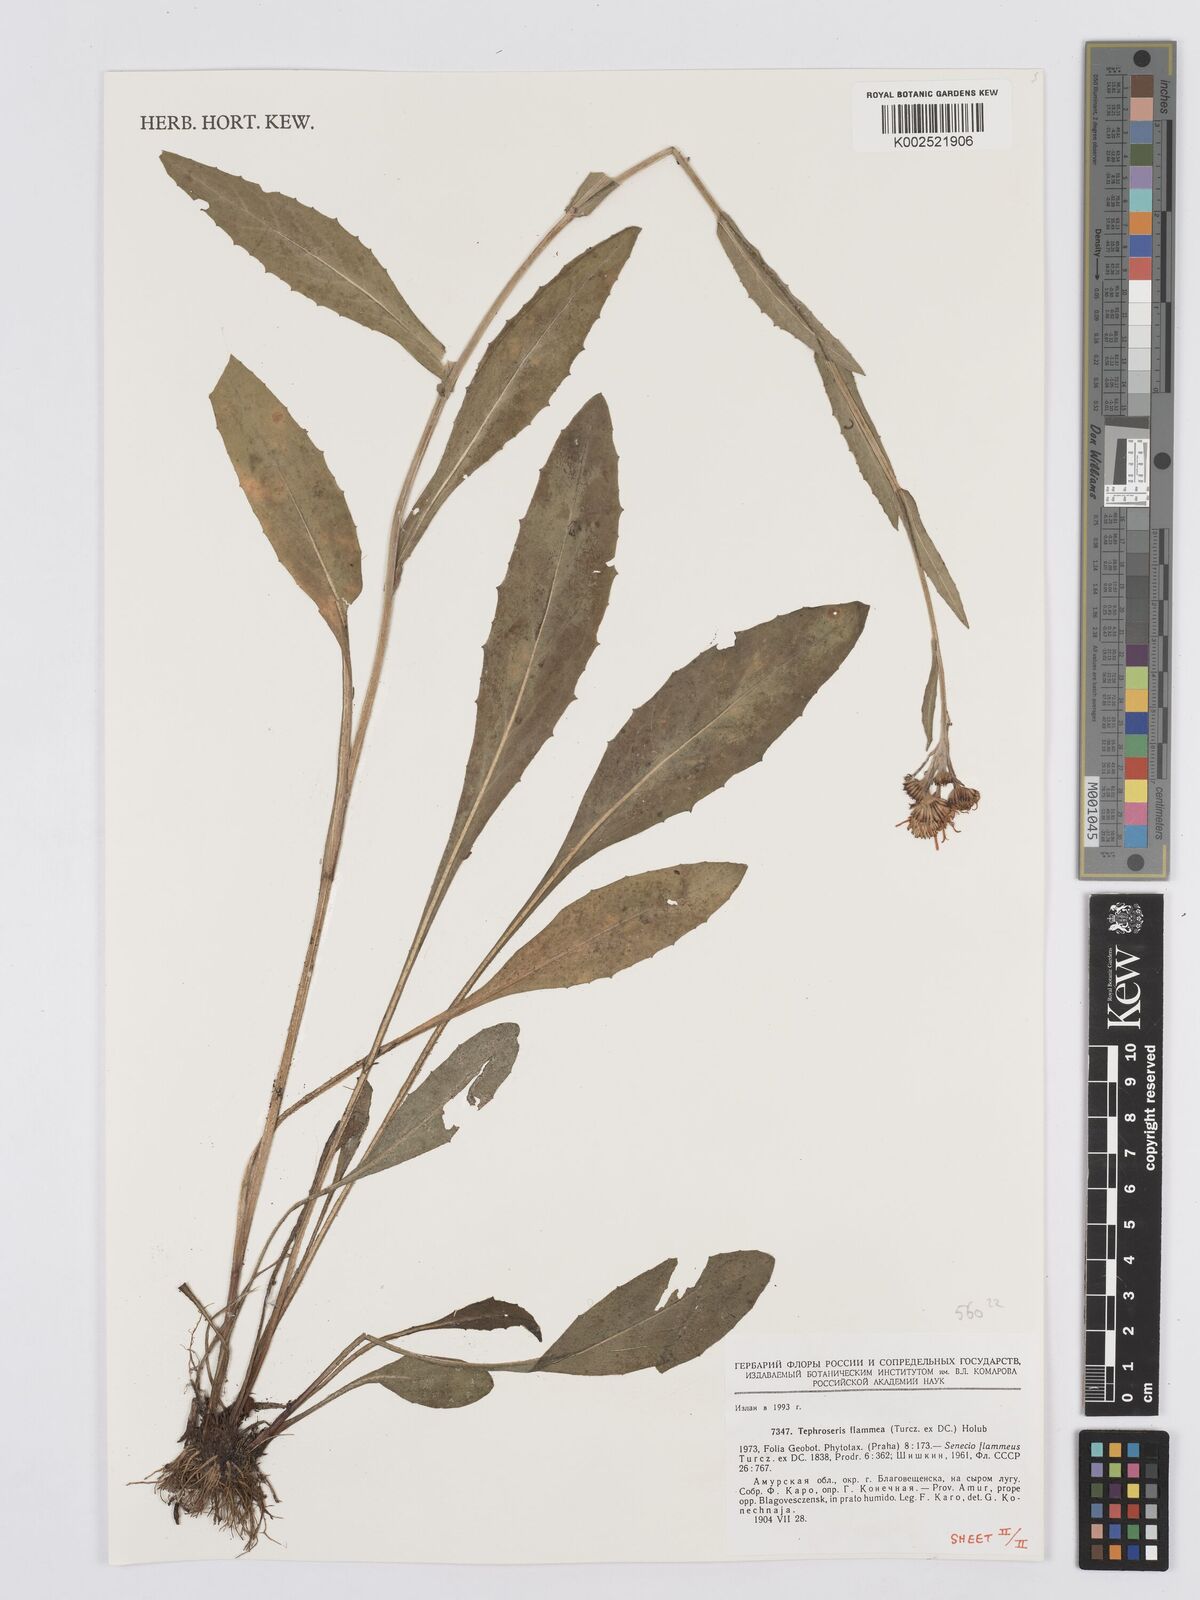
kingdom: Plantae
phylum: Tracheophyta
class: Magnoliopsida
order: Asterales
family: Asteraceae
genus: Tephroseris
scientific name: Tephroseris flammea
